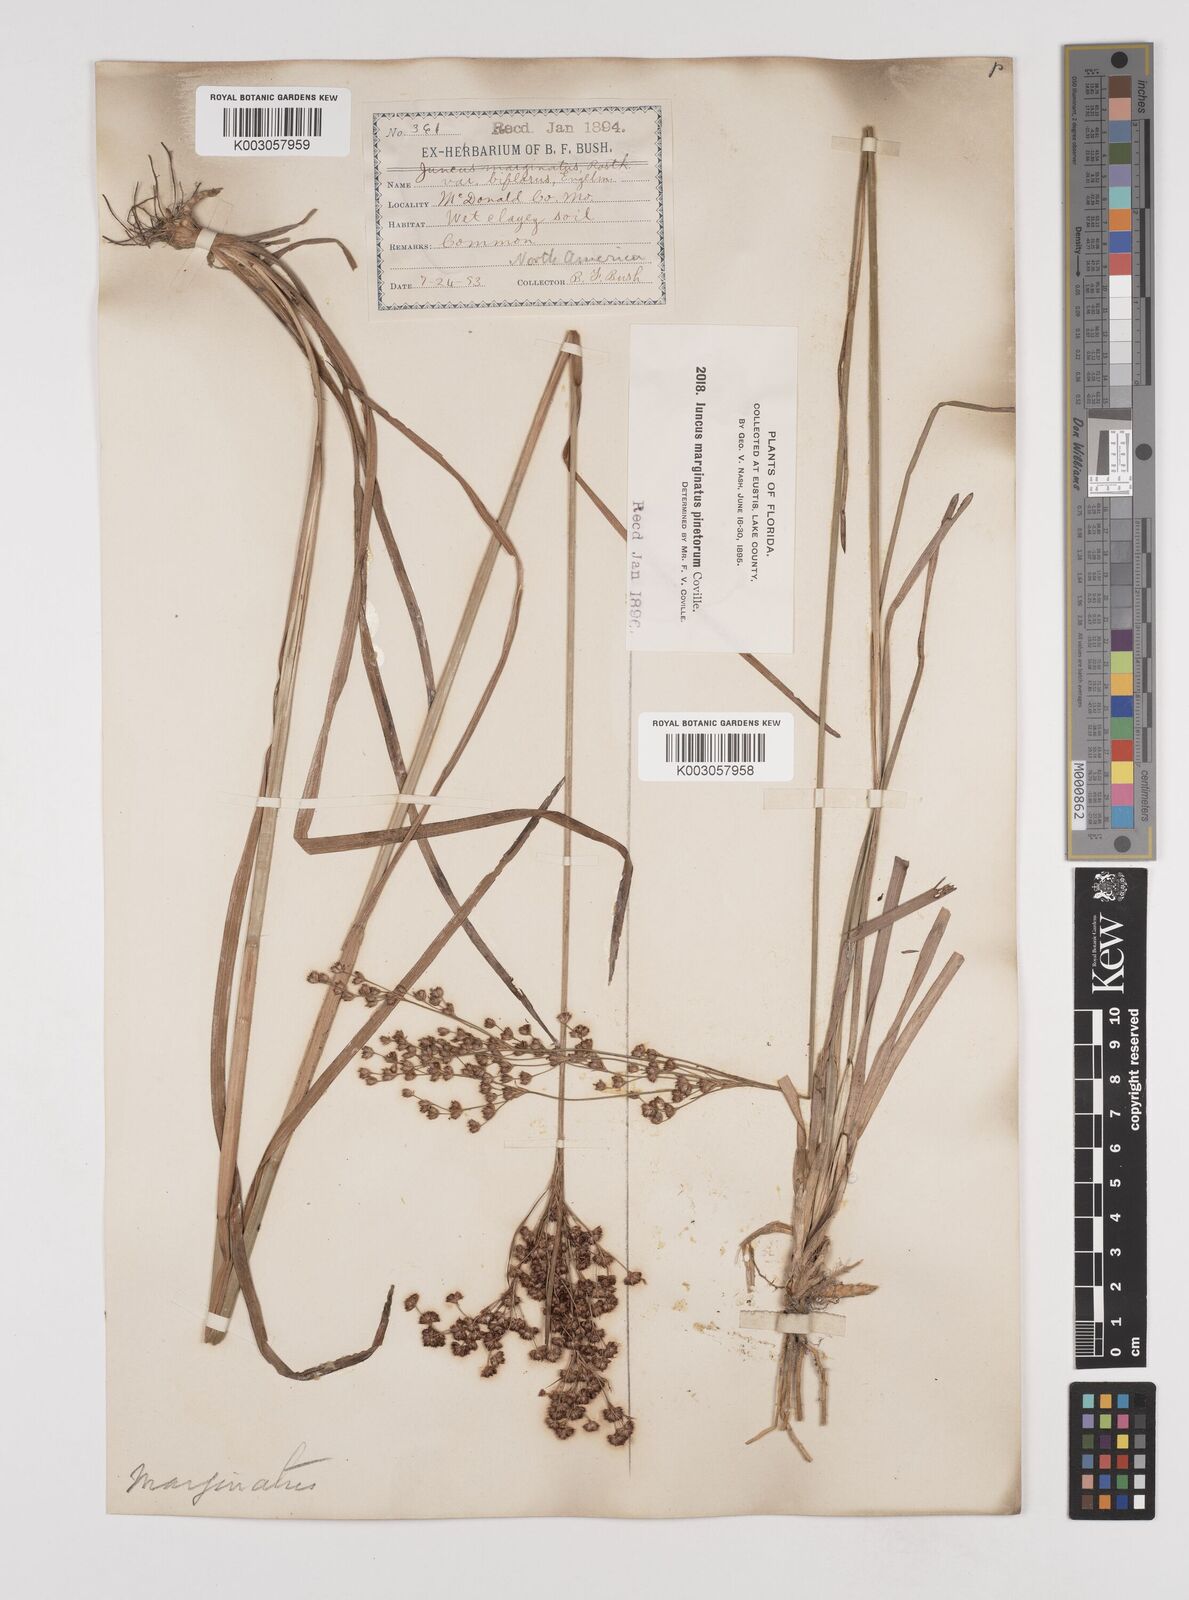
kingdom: Plantae
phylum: Tracheophyta
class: Liliopsida
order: Poales
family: Juncaceae
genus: Juncus
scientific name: Juncus marginatus
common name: Grass-leaf rush
